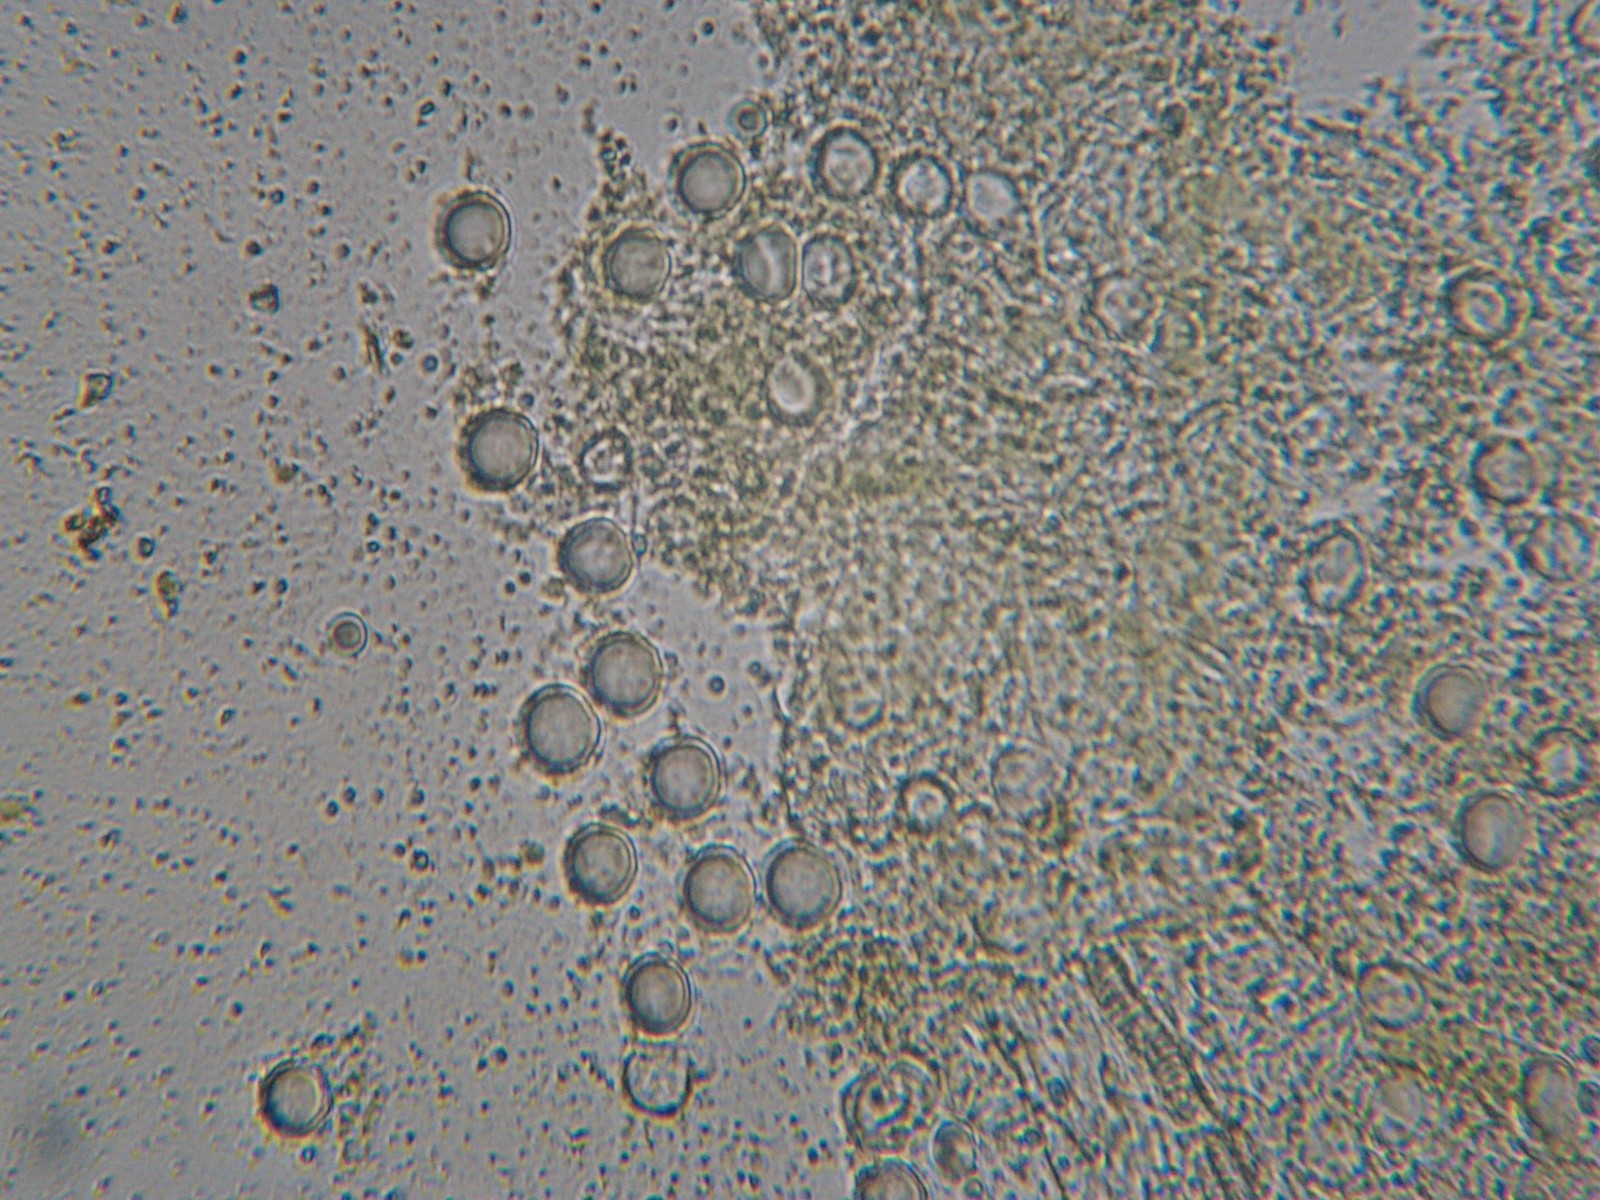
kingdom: Fungi
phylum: Basidiomycota
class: Exobasidiomycetes
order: Entylomatales
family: Entylomataceae
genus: Entyloma
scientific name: Entyloma ficariae
